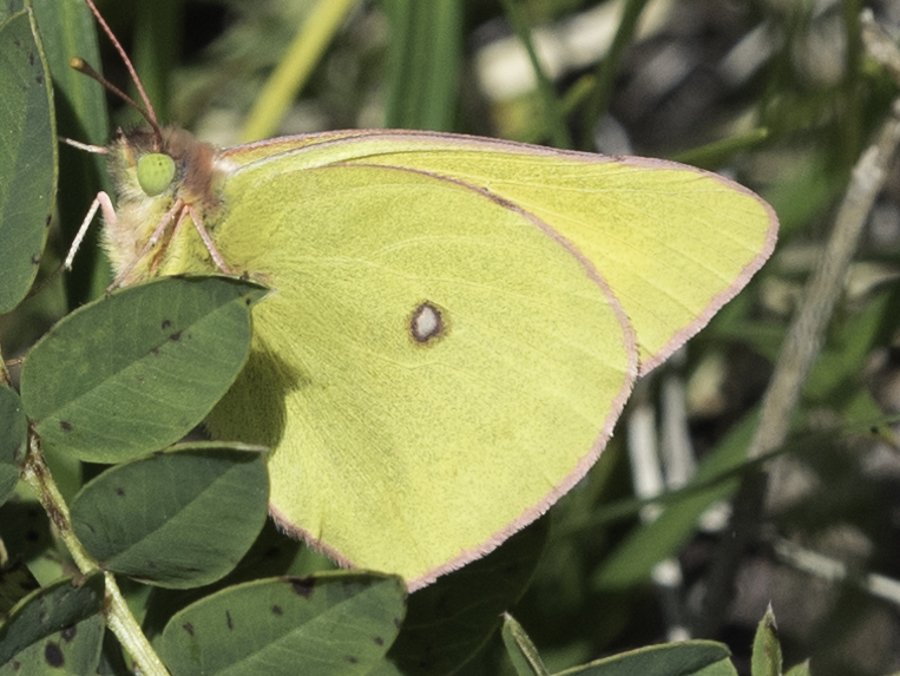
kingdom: Animalia
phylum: Arthropoda
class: Insecta
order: Lepidoptera
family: Pieridae
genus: Colias
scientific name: Colias interior
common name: Pink-edged Sulphur
